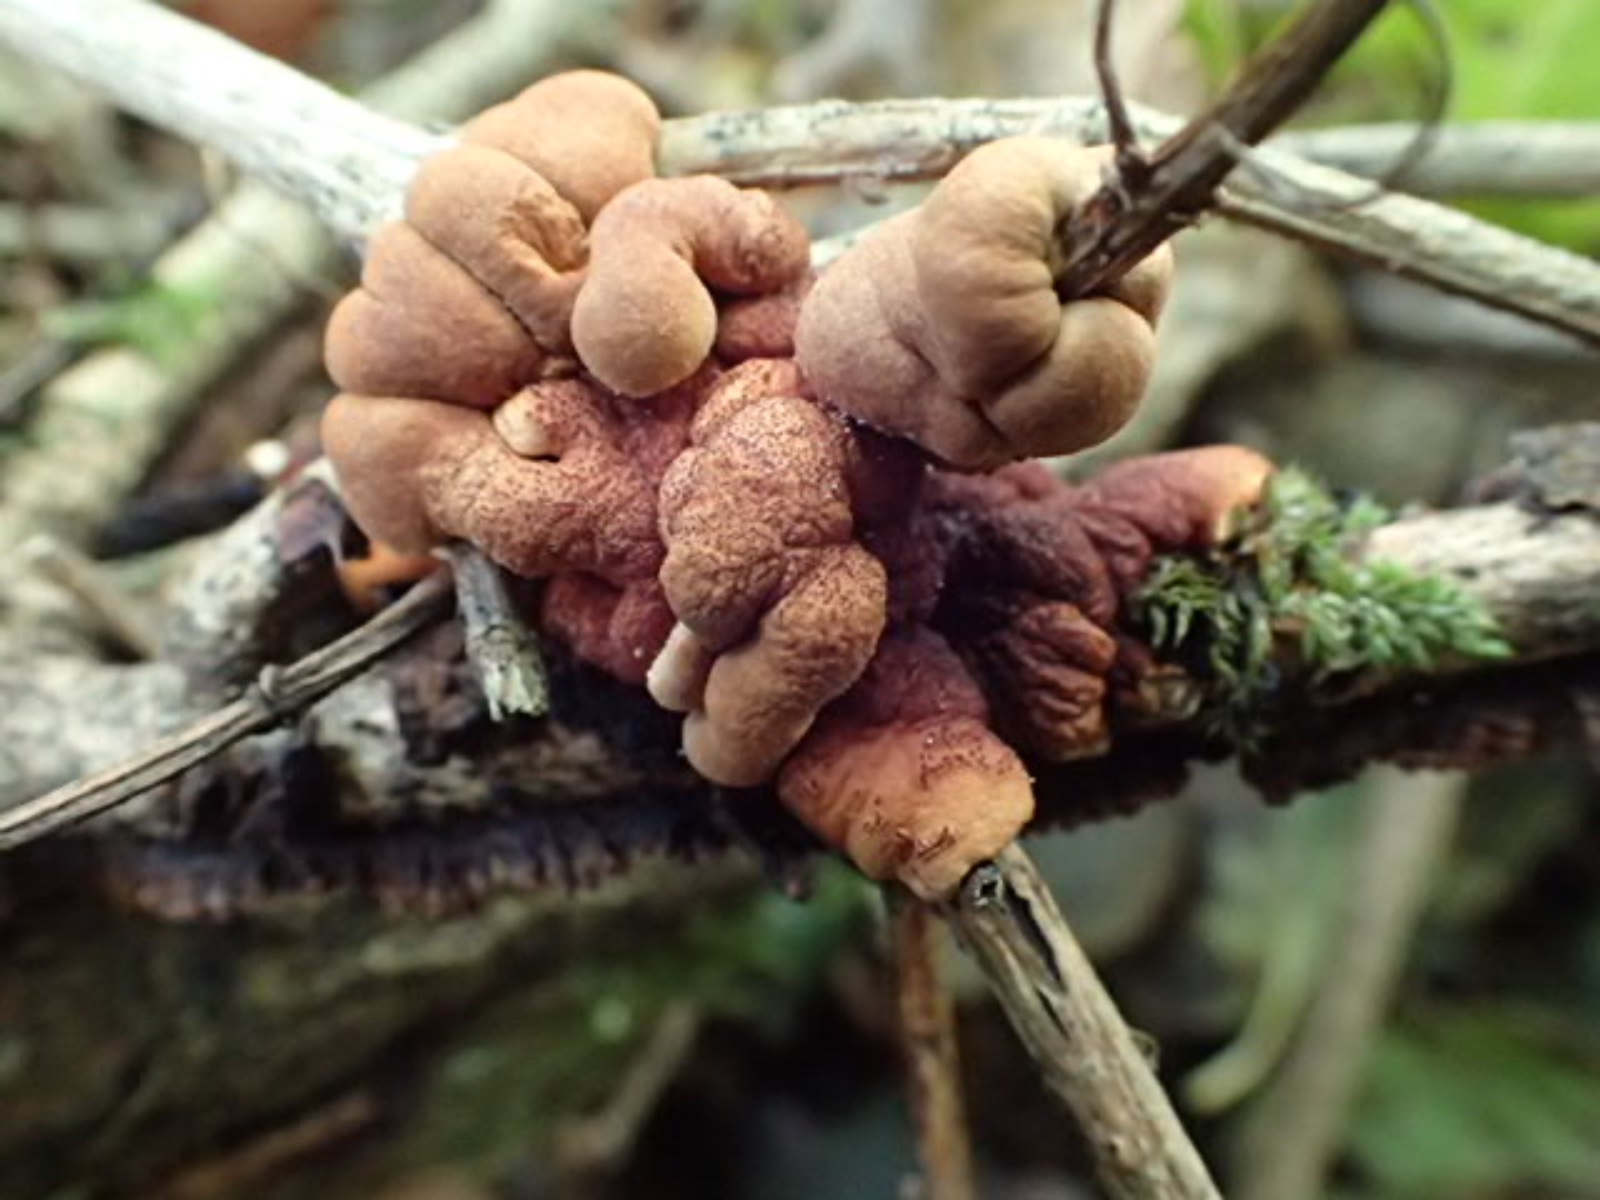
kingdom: Fungi
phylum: Ascomycota
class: Sordariomycetes
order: Hypocreales
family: Hypocreaceae
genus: Hypocreopsis
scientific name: Hypocreopsis lichenoides
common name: pilfinger
